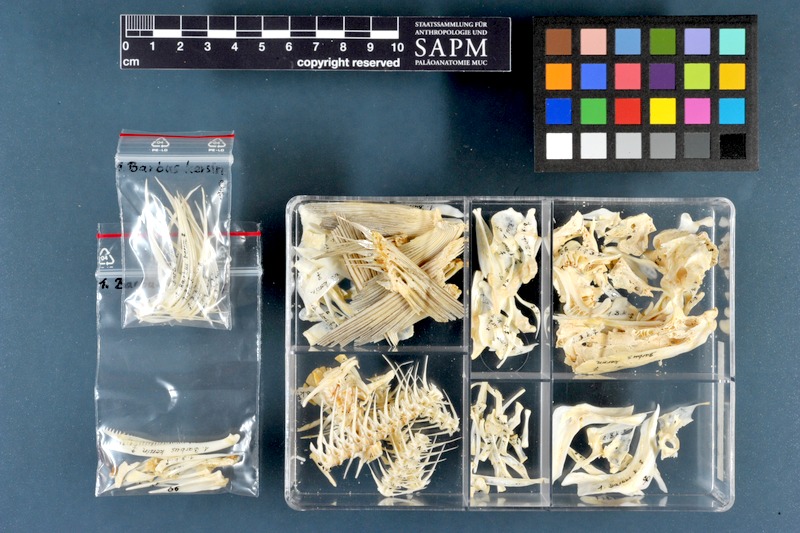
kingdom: Animalia
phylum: Chordata
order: Cypriniformes
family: Cyprinidae
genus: Luciobarbus
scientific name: Luciobarbus kersin
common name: Berzem
